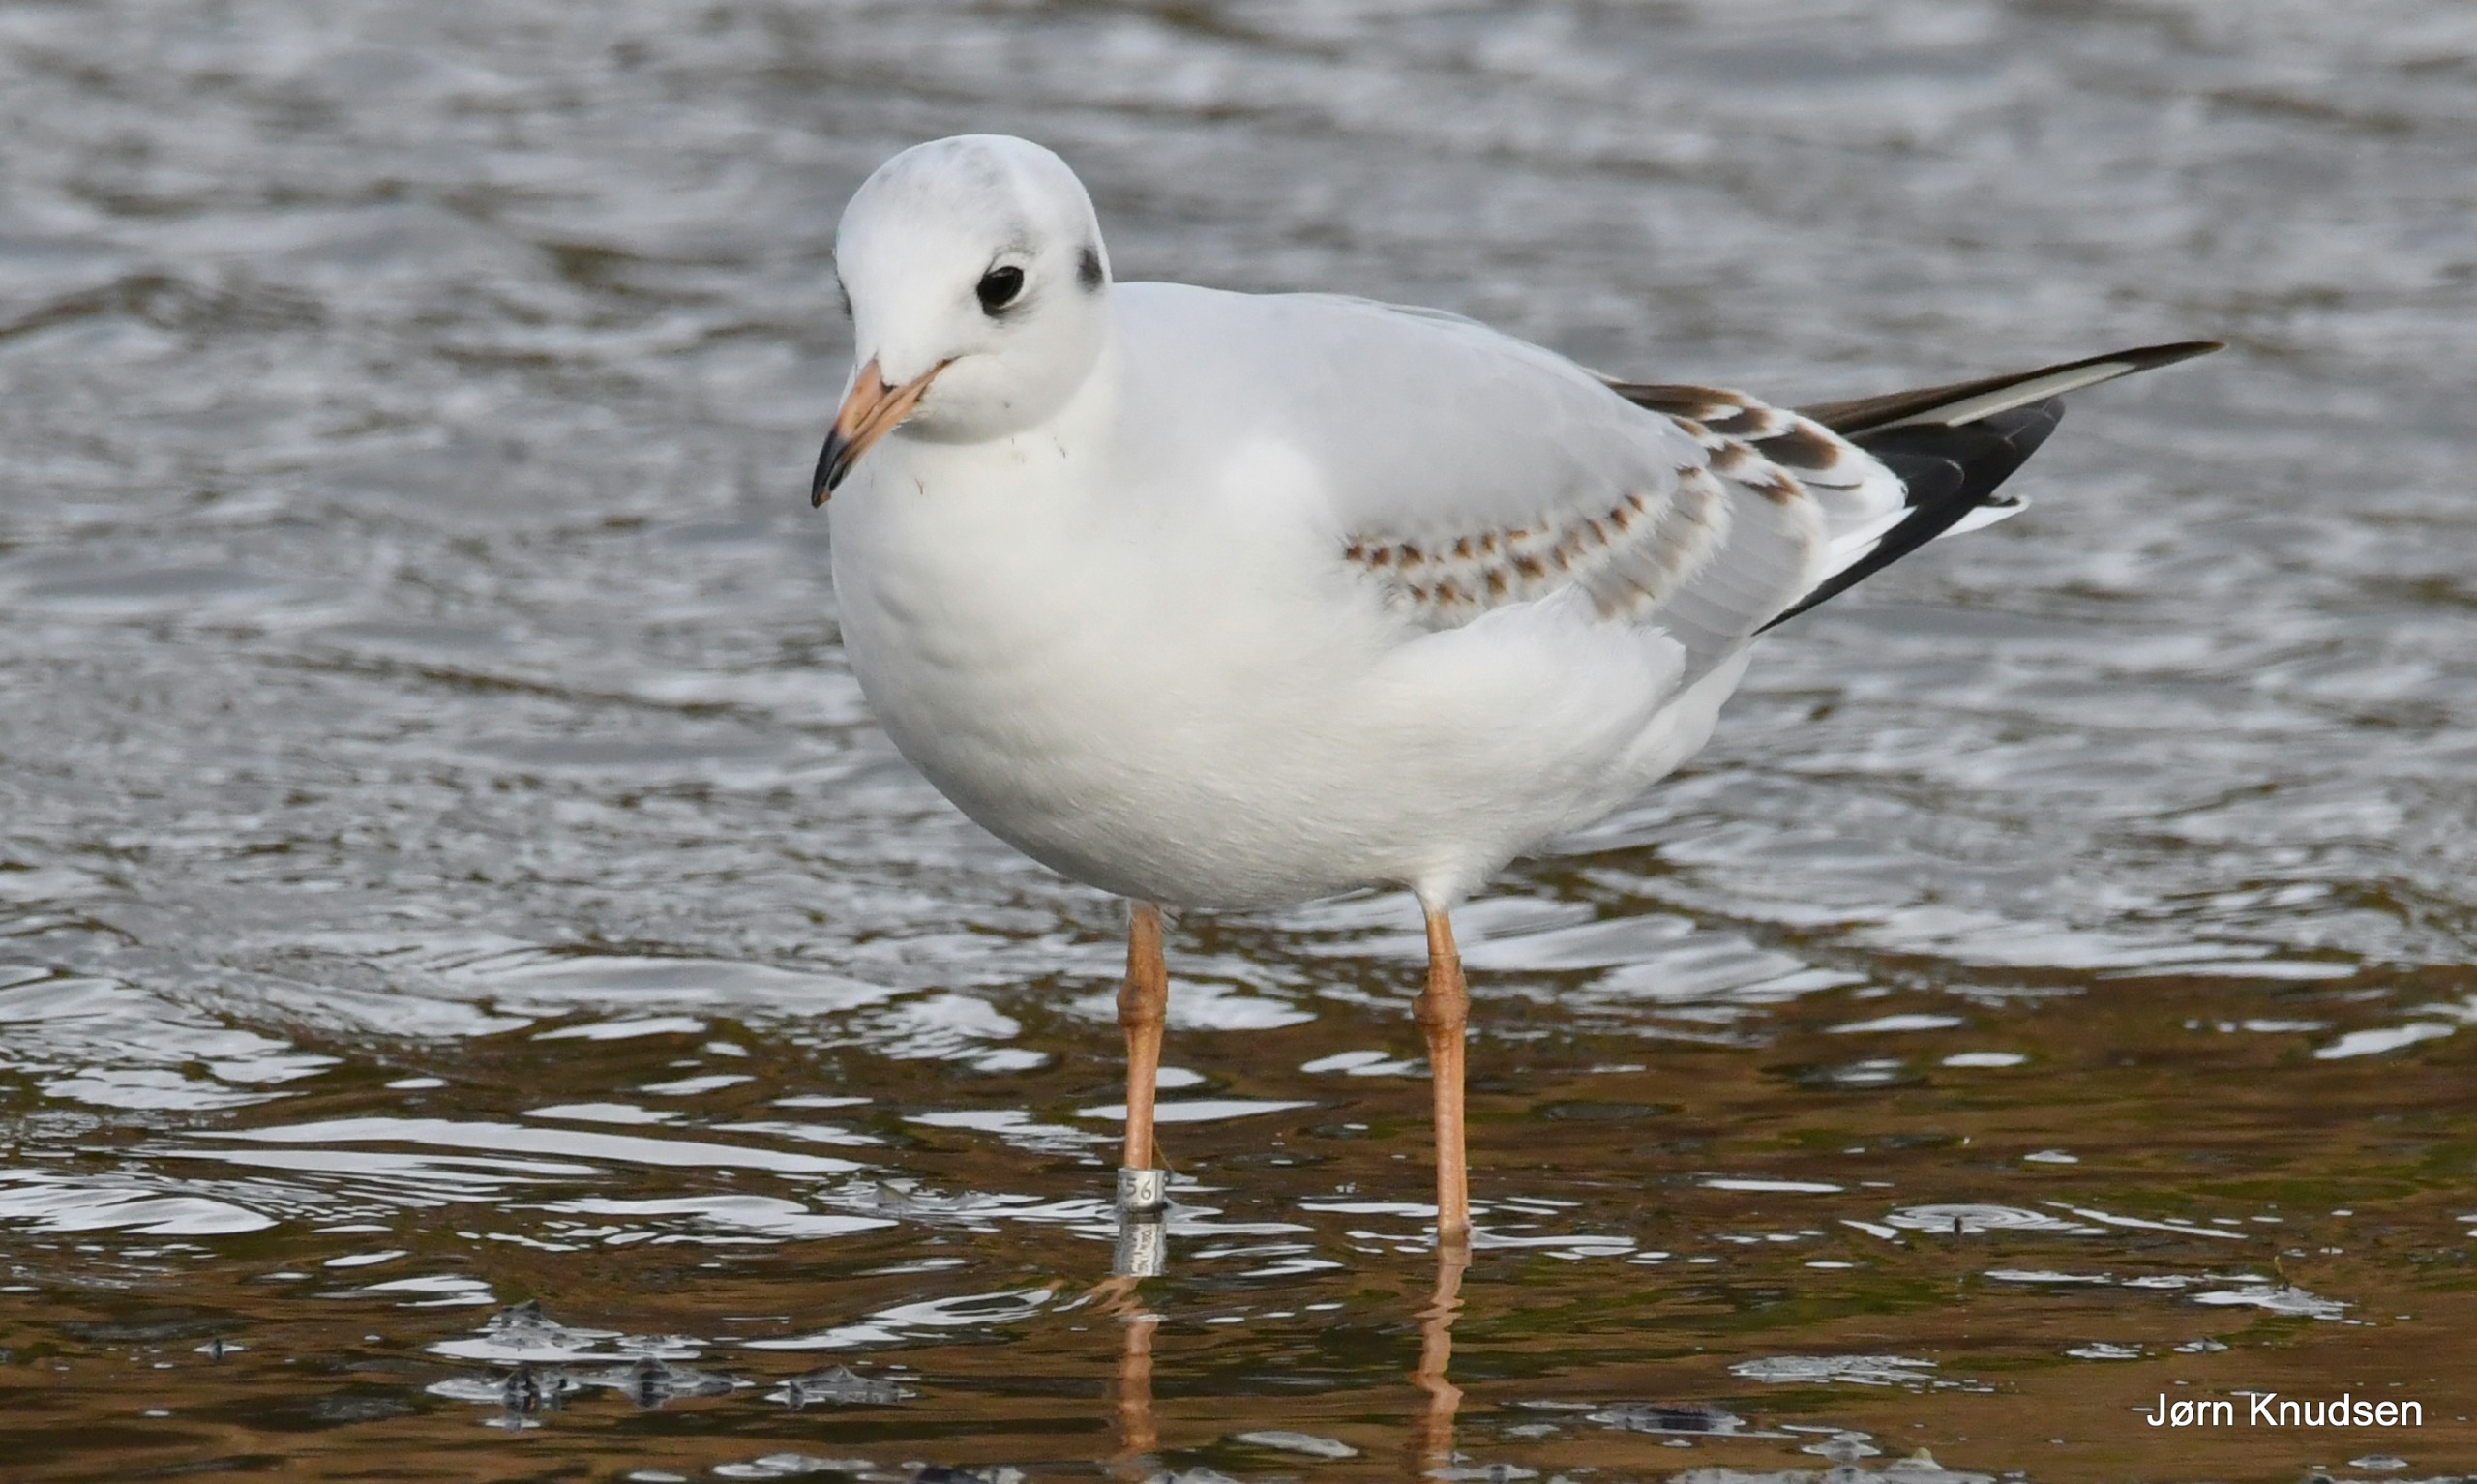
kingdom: Animalia
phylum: Chordata
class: Aves
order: Charadriiformes
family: Laridae
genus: Chroicocephalus
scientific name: Chroicocephalus ridibundus
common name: Hættemåge
